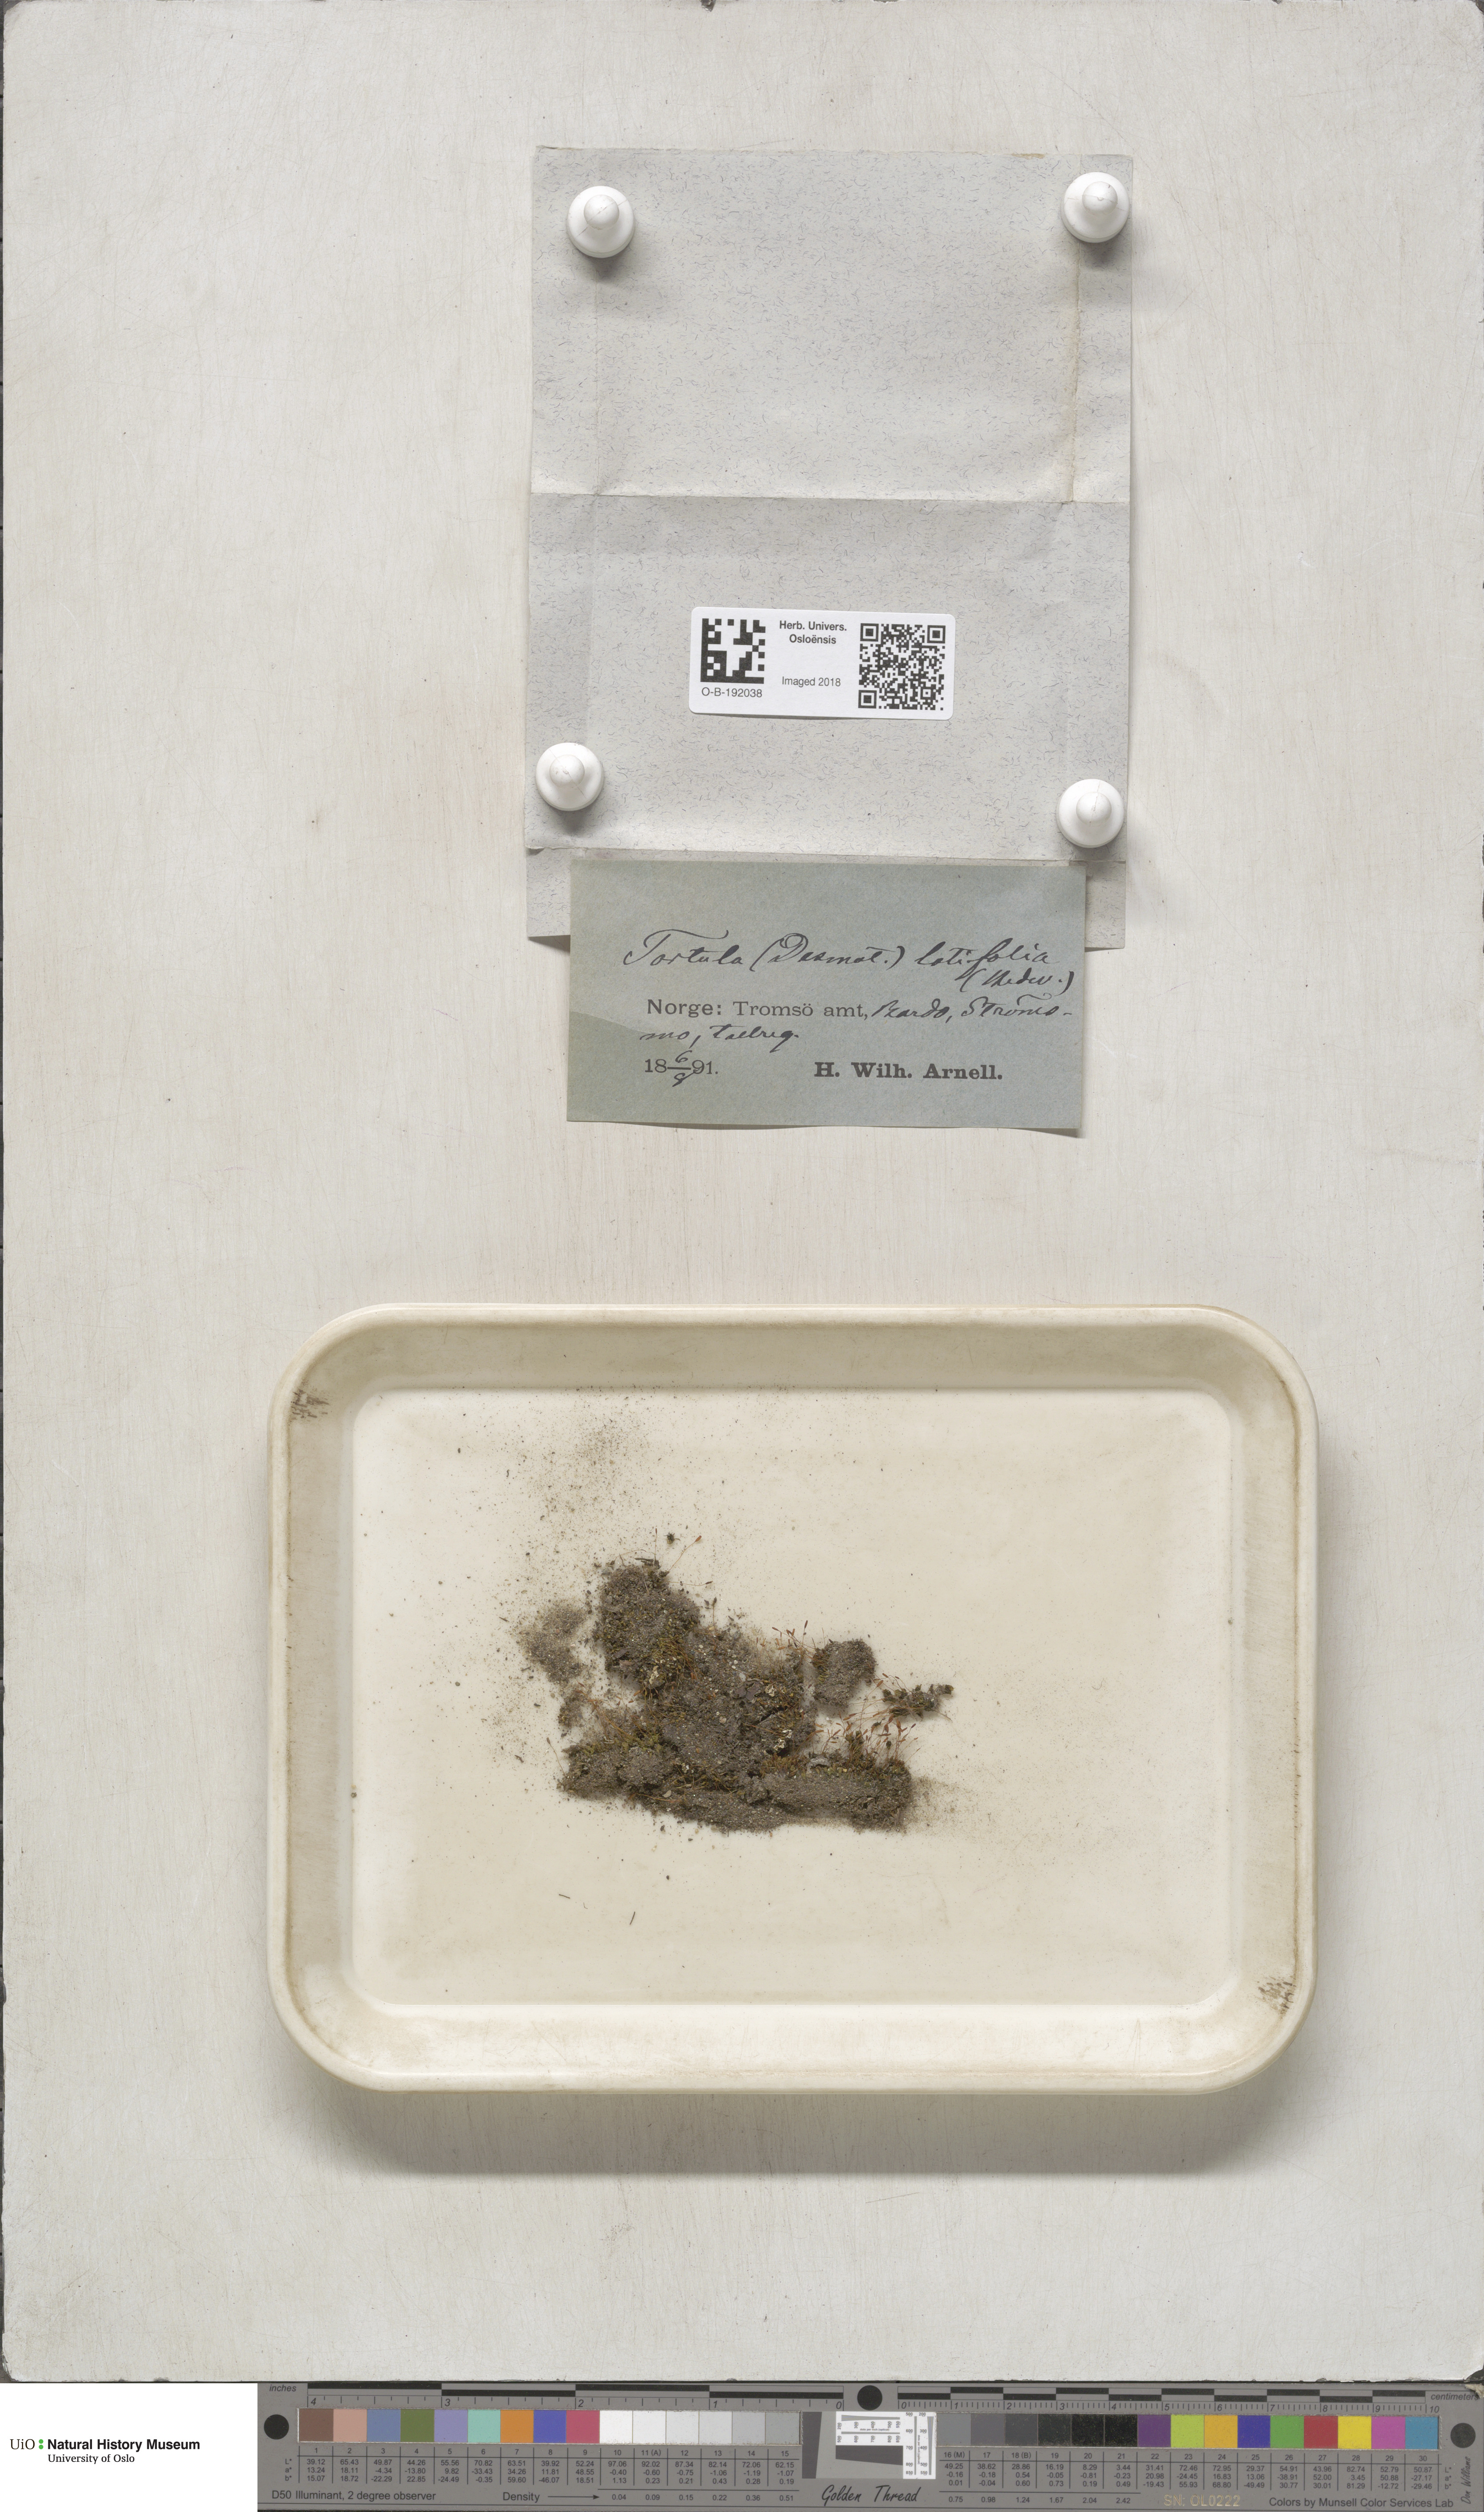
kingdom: Plantae
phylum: Bryophyta
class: Bryopsida
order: Pottiales
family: Pottiaceae
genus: Tortula
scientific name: Tortula hoppeana
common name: Hoppe's screw moss
